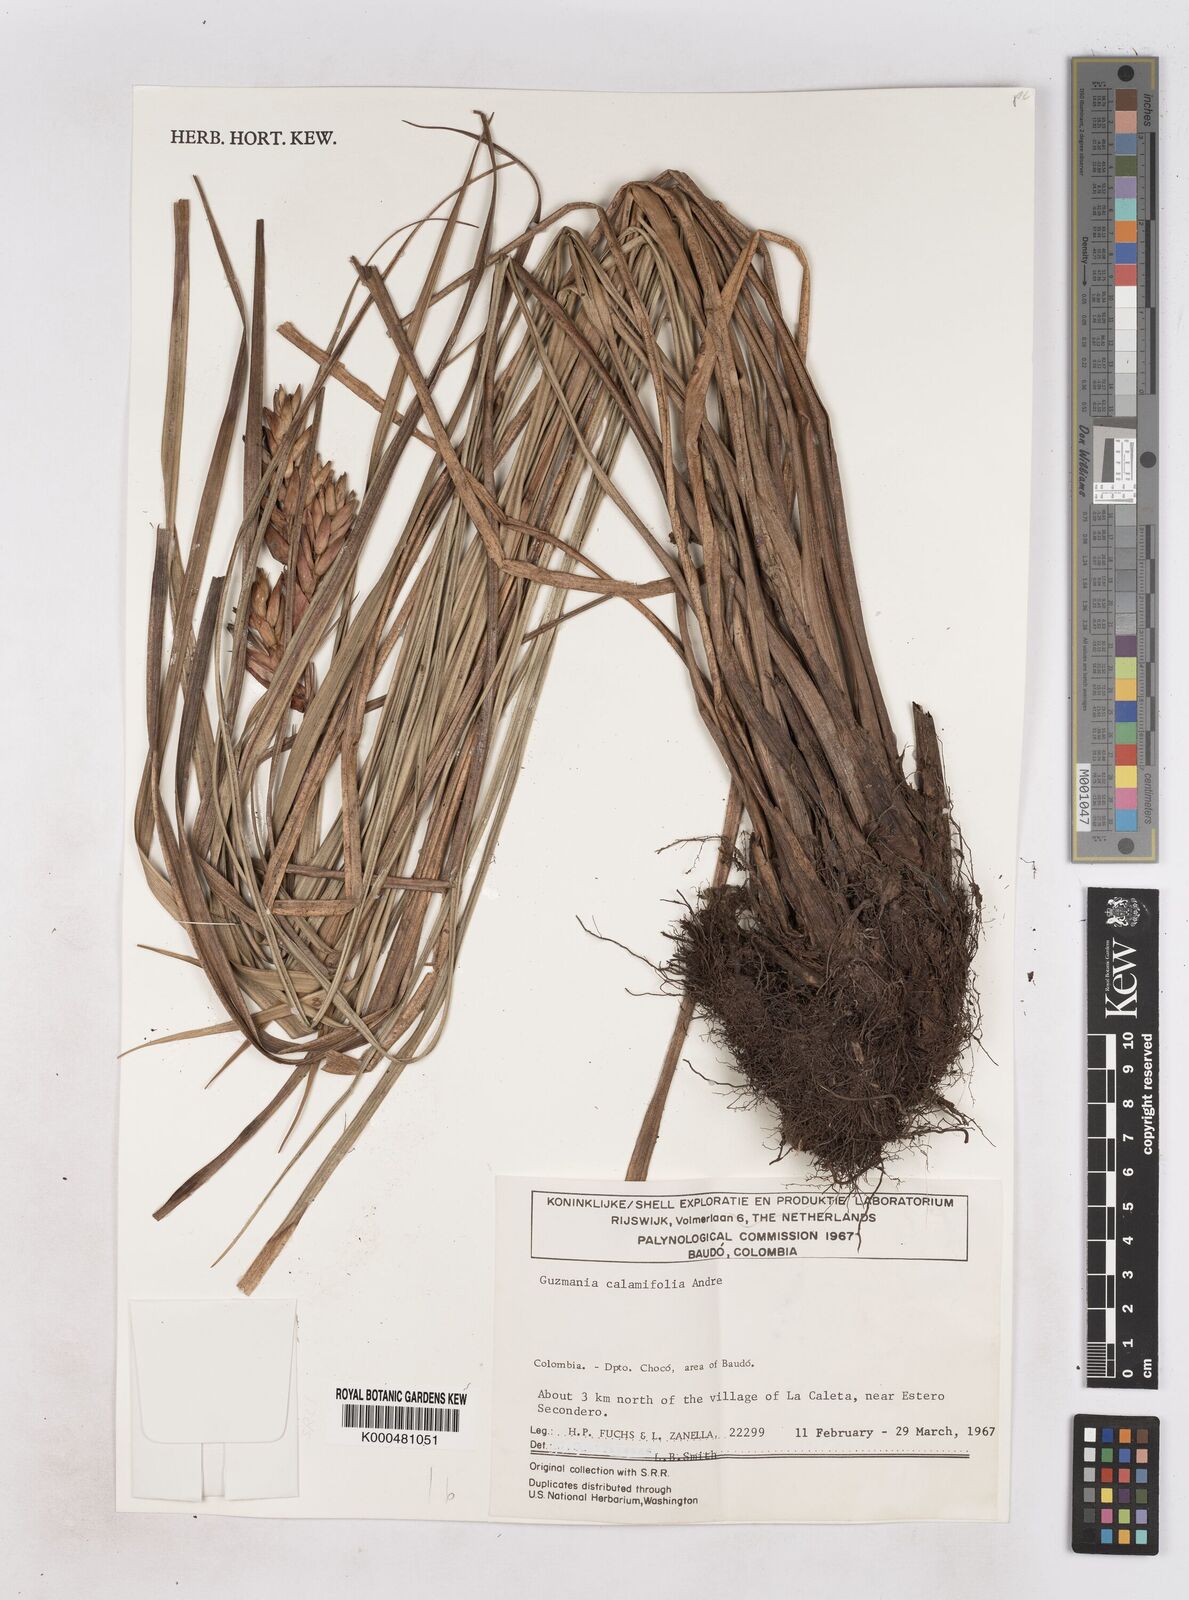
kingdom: Plantae
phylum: Tracheophyta
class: Liliopsida
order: Poales
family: Bromeliaceae
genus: Guzmania
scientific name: Guzmania
